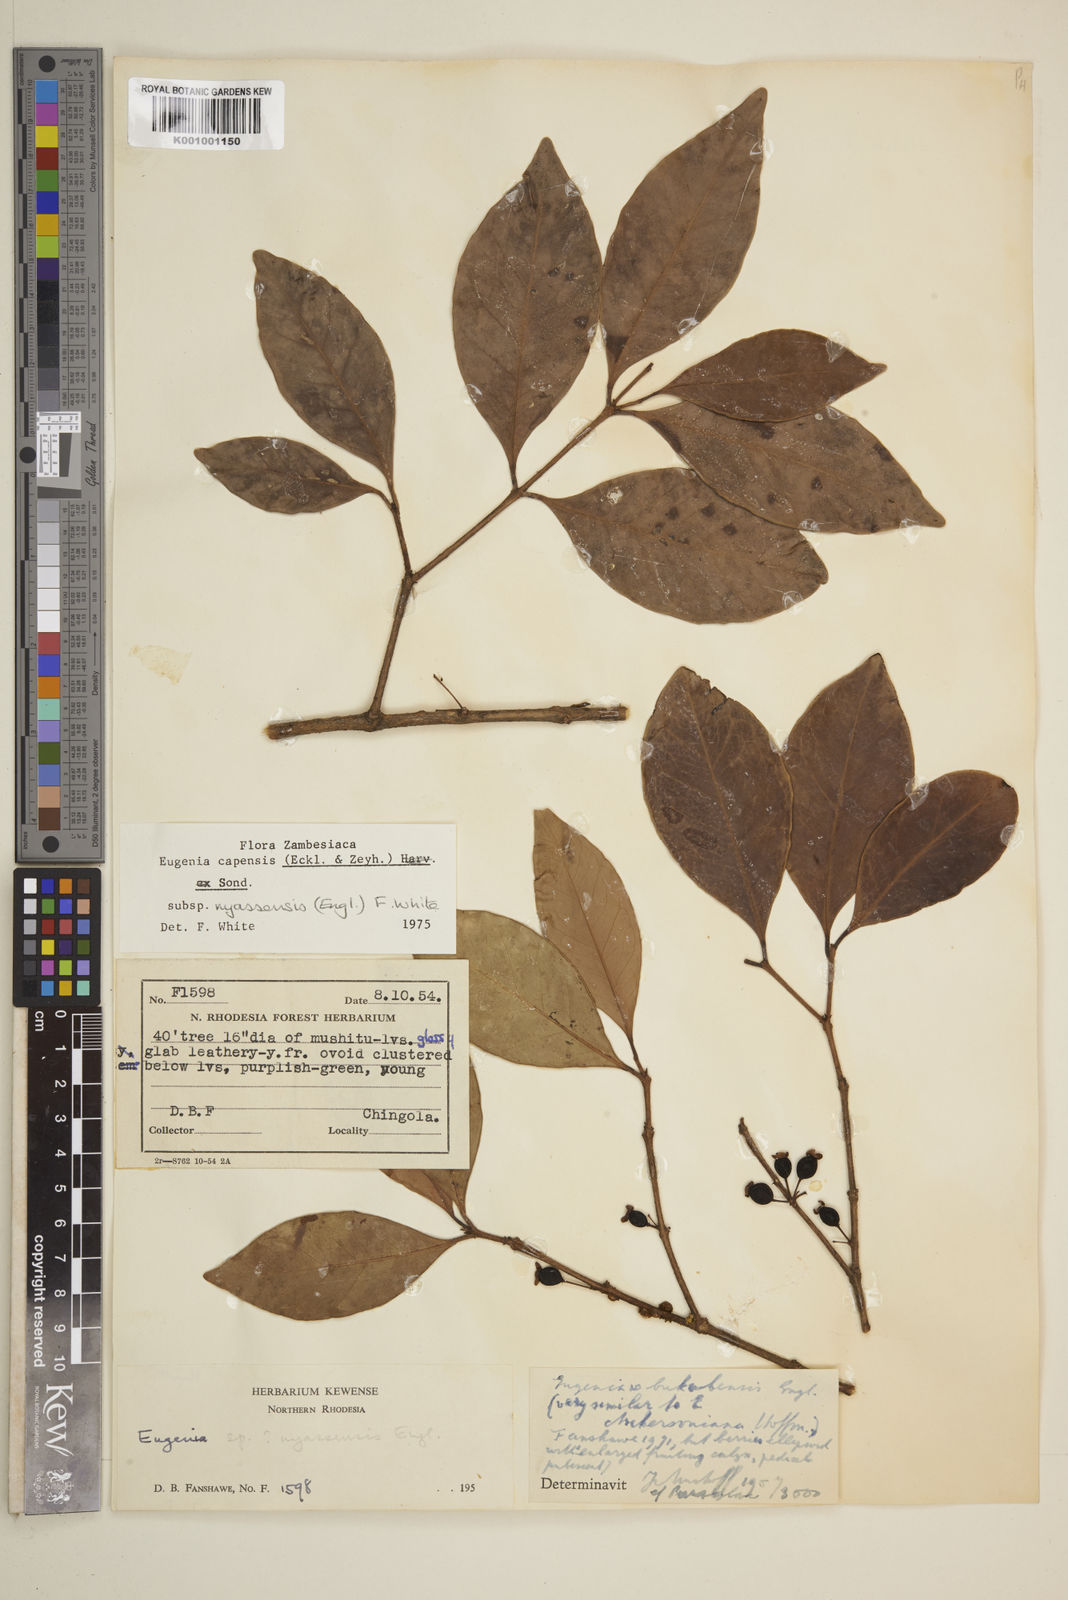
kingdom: Plantae
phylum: Tracheophyta
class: Magnoliopsida
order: Myrtales
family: Myrtaceae
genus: Eugenia
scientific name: Eugenia capensis
